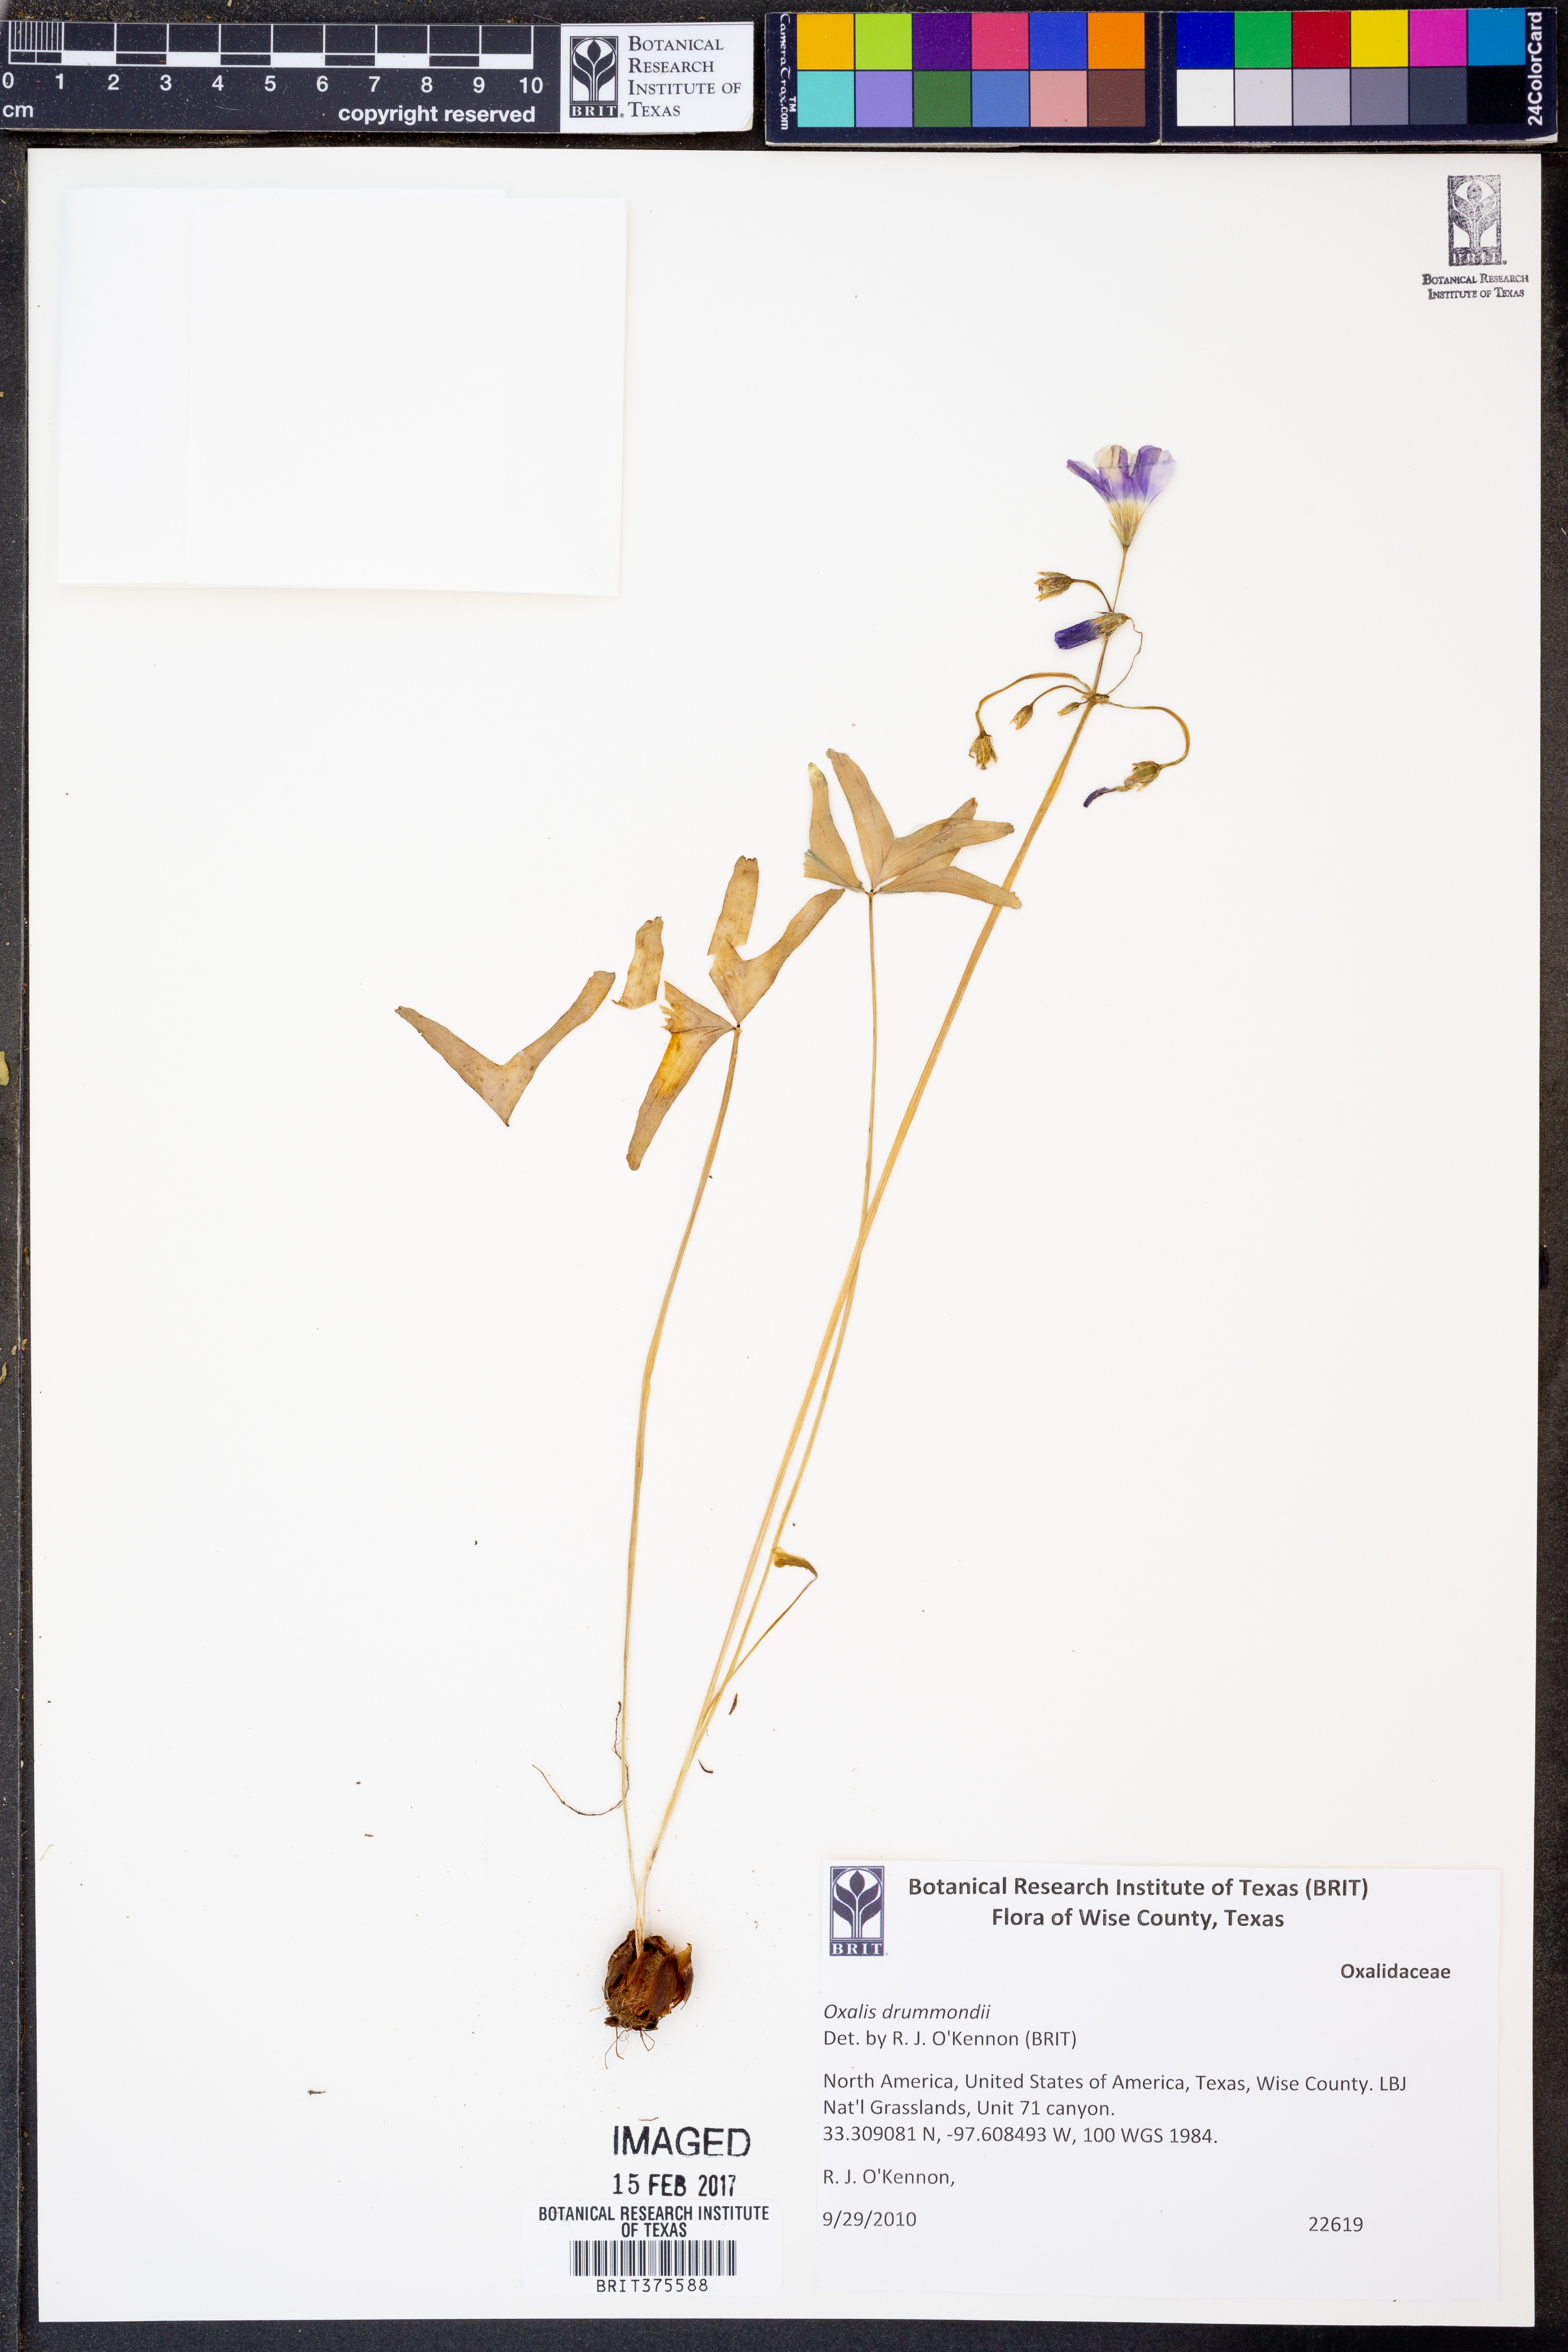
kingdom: Plantae
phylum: Tracheophyta
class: Magnoliopsida
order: Oxalidales
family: Oxalidaceae
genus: Oxalis
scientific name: Oxalis drummondii
